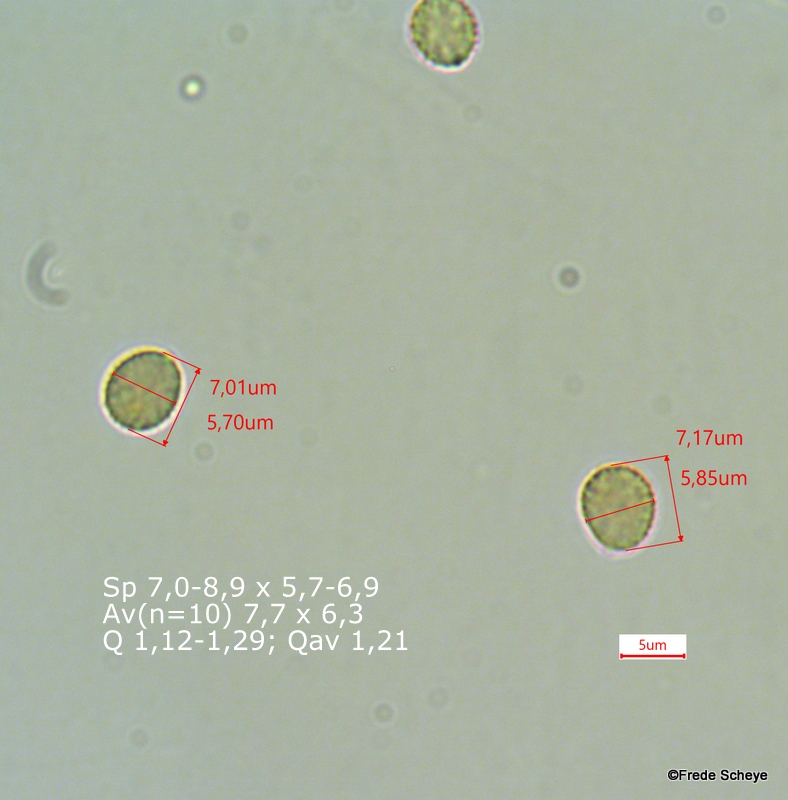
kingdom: Fungi
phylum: Basidiomycota
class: Agaricomycetes
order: Agaricales
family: Crepidotaceae
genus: Crepidotus
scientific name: Crepidotus cesatii
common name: almindelig muslingesvamp
